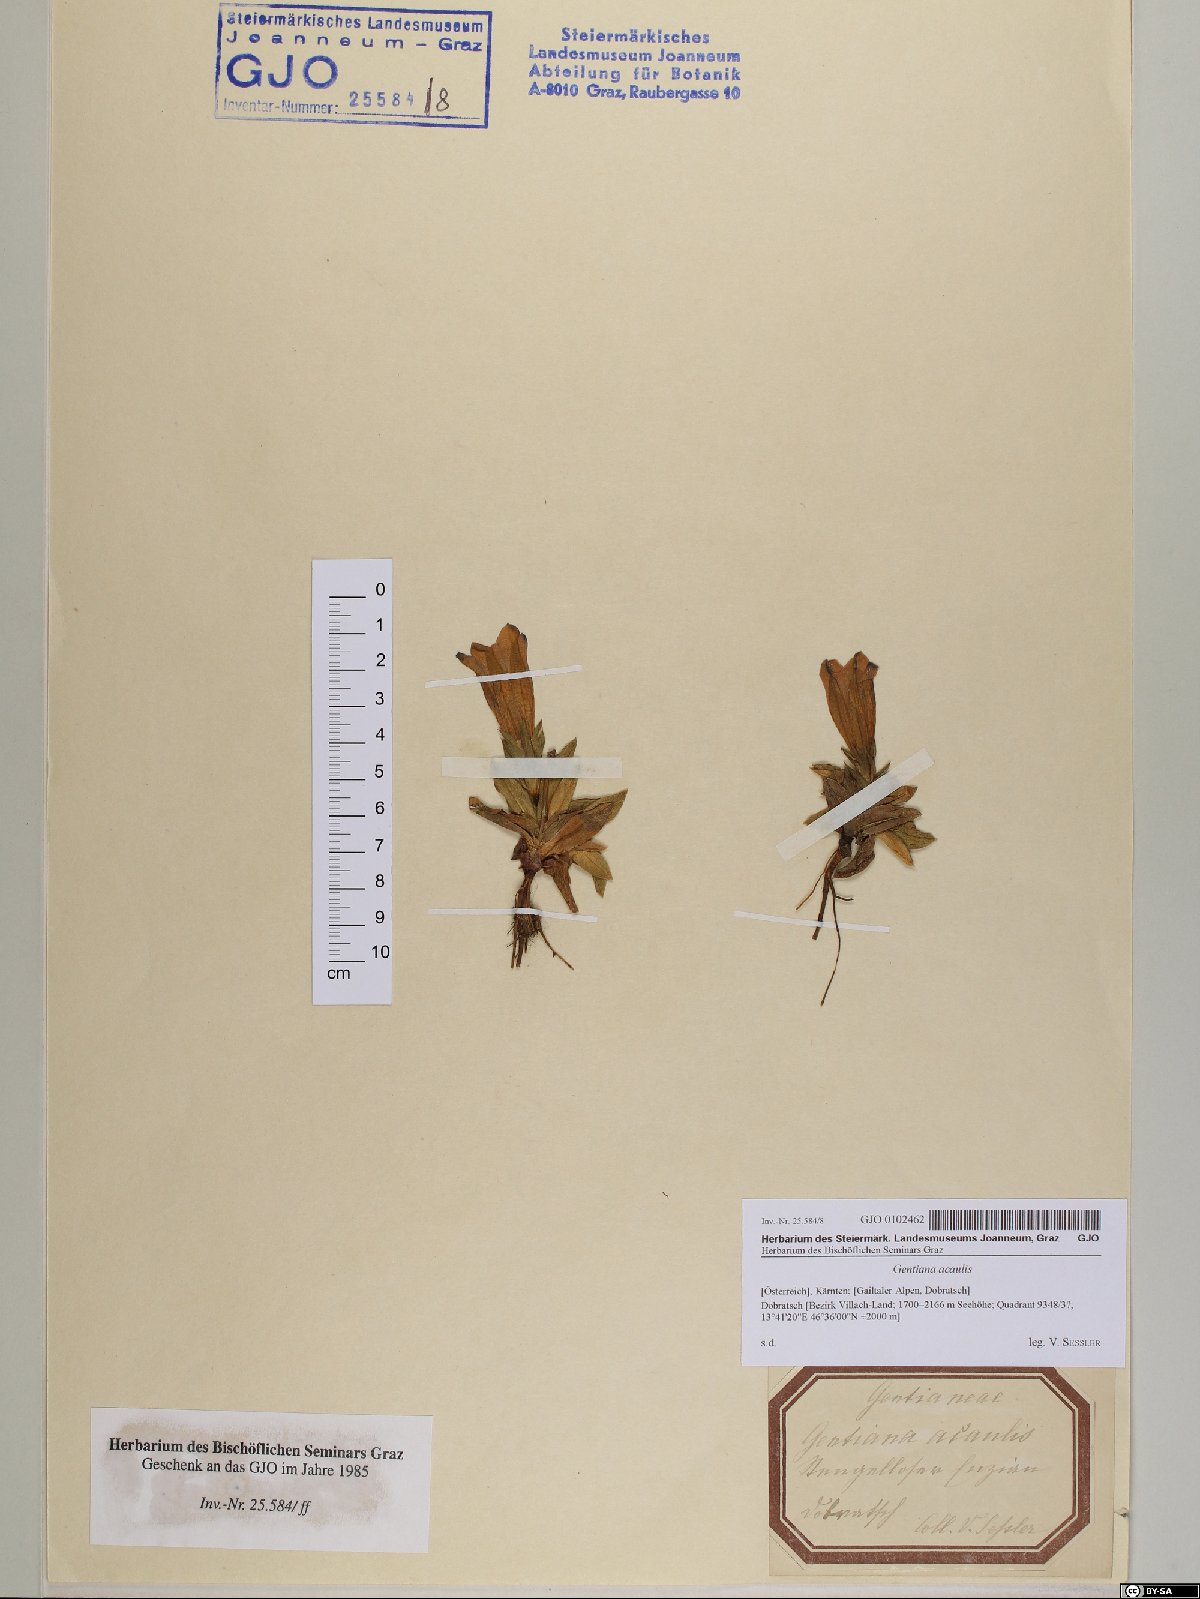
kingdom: Plantae
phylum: Tracheophyta
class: Magnoliopsida
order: Gentianales
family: Gentianaceae
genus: Gentiana
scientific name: Gentiana acaulis
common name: Trumpet gentian
